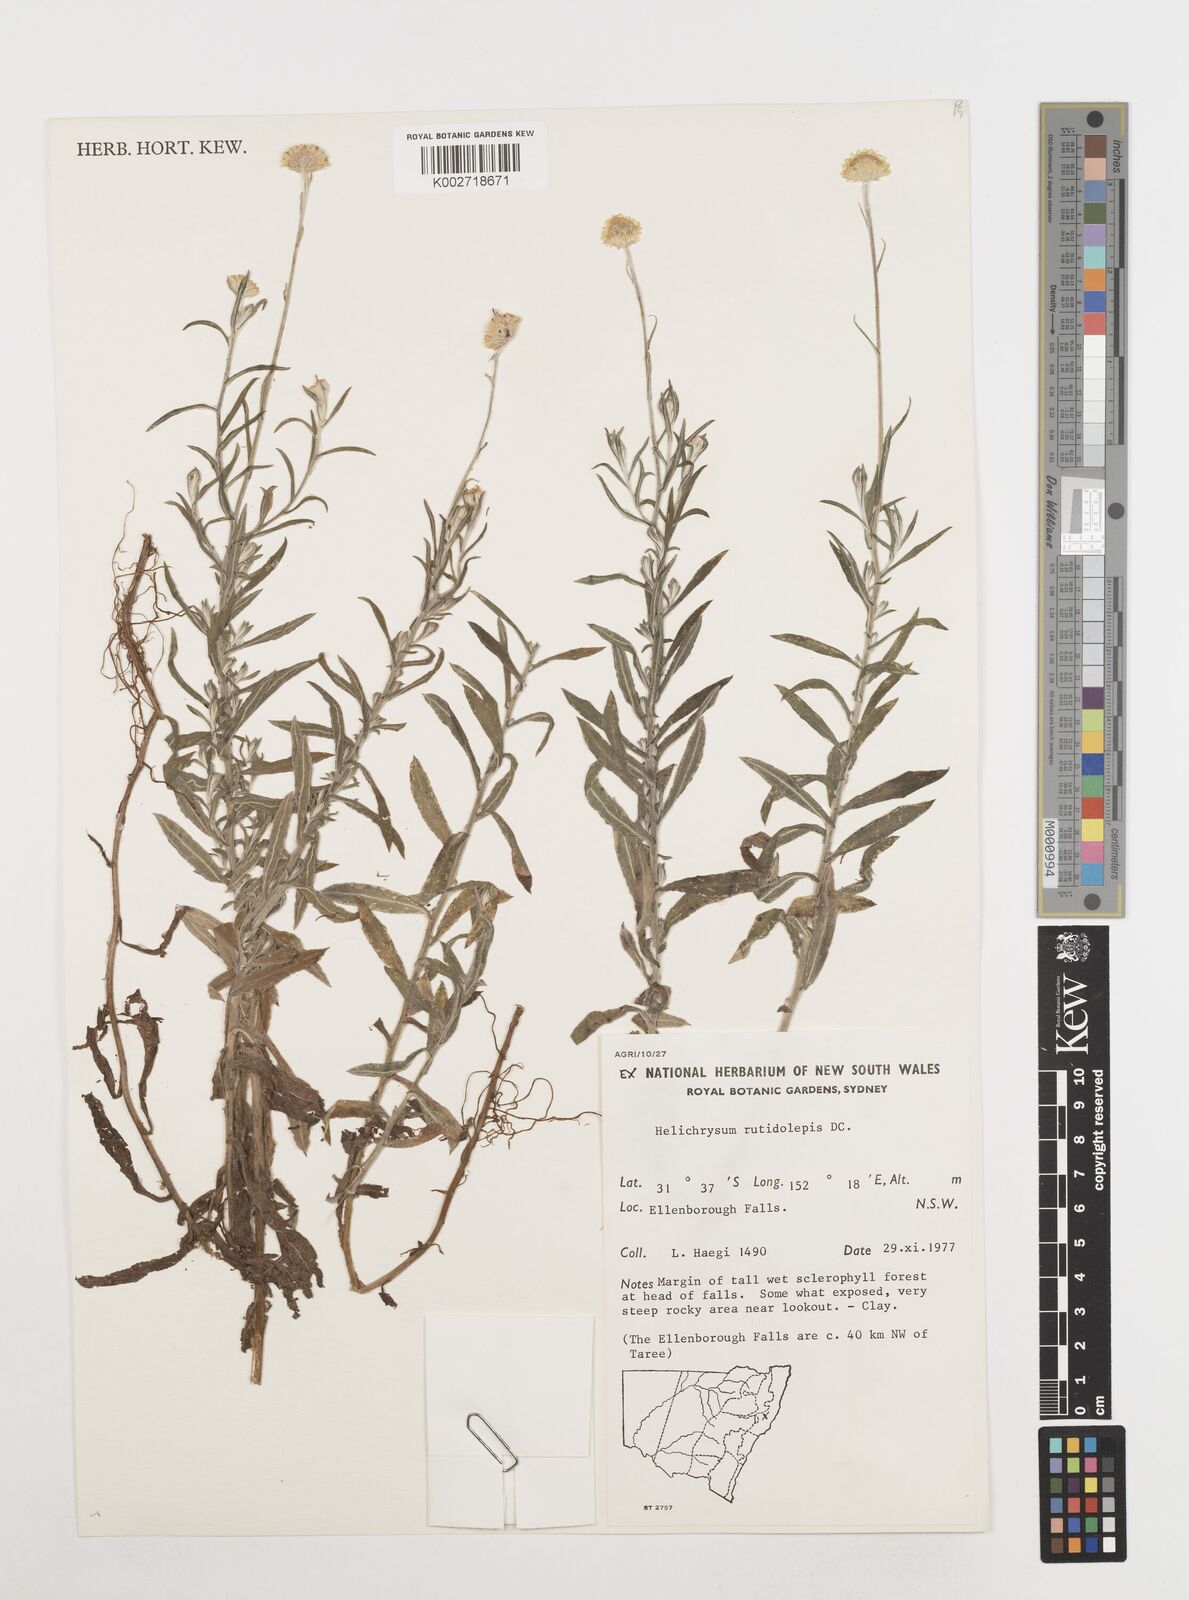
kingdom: Plantae
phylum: Tracheophyta
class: Magnoliopsida
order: Asterales
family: Asteraceae
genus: Coronidium
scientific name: Coronidium rutidolepis
